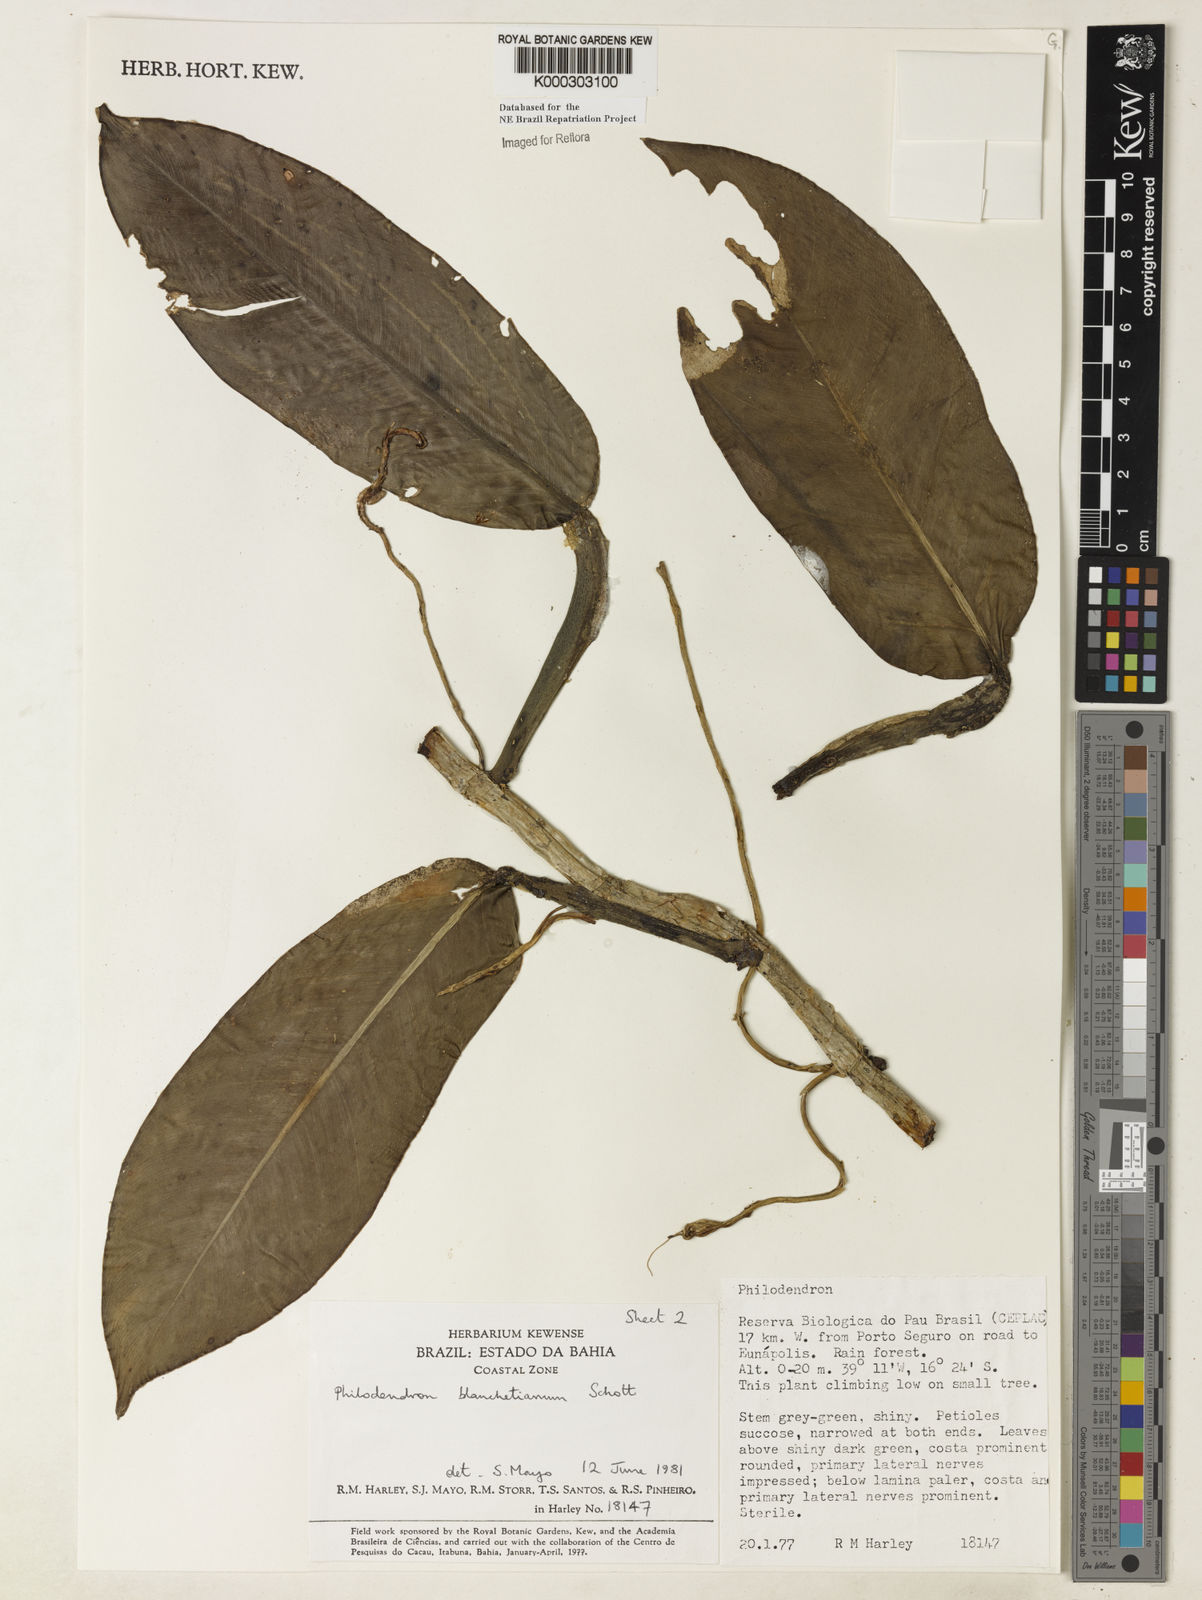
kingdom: Plantae
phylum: Tracheophyta
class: Liliopsida
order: Alismatales
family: Araceae
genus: Philodendron
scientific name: Philodendron blanchetianum
